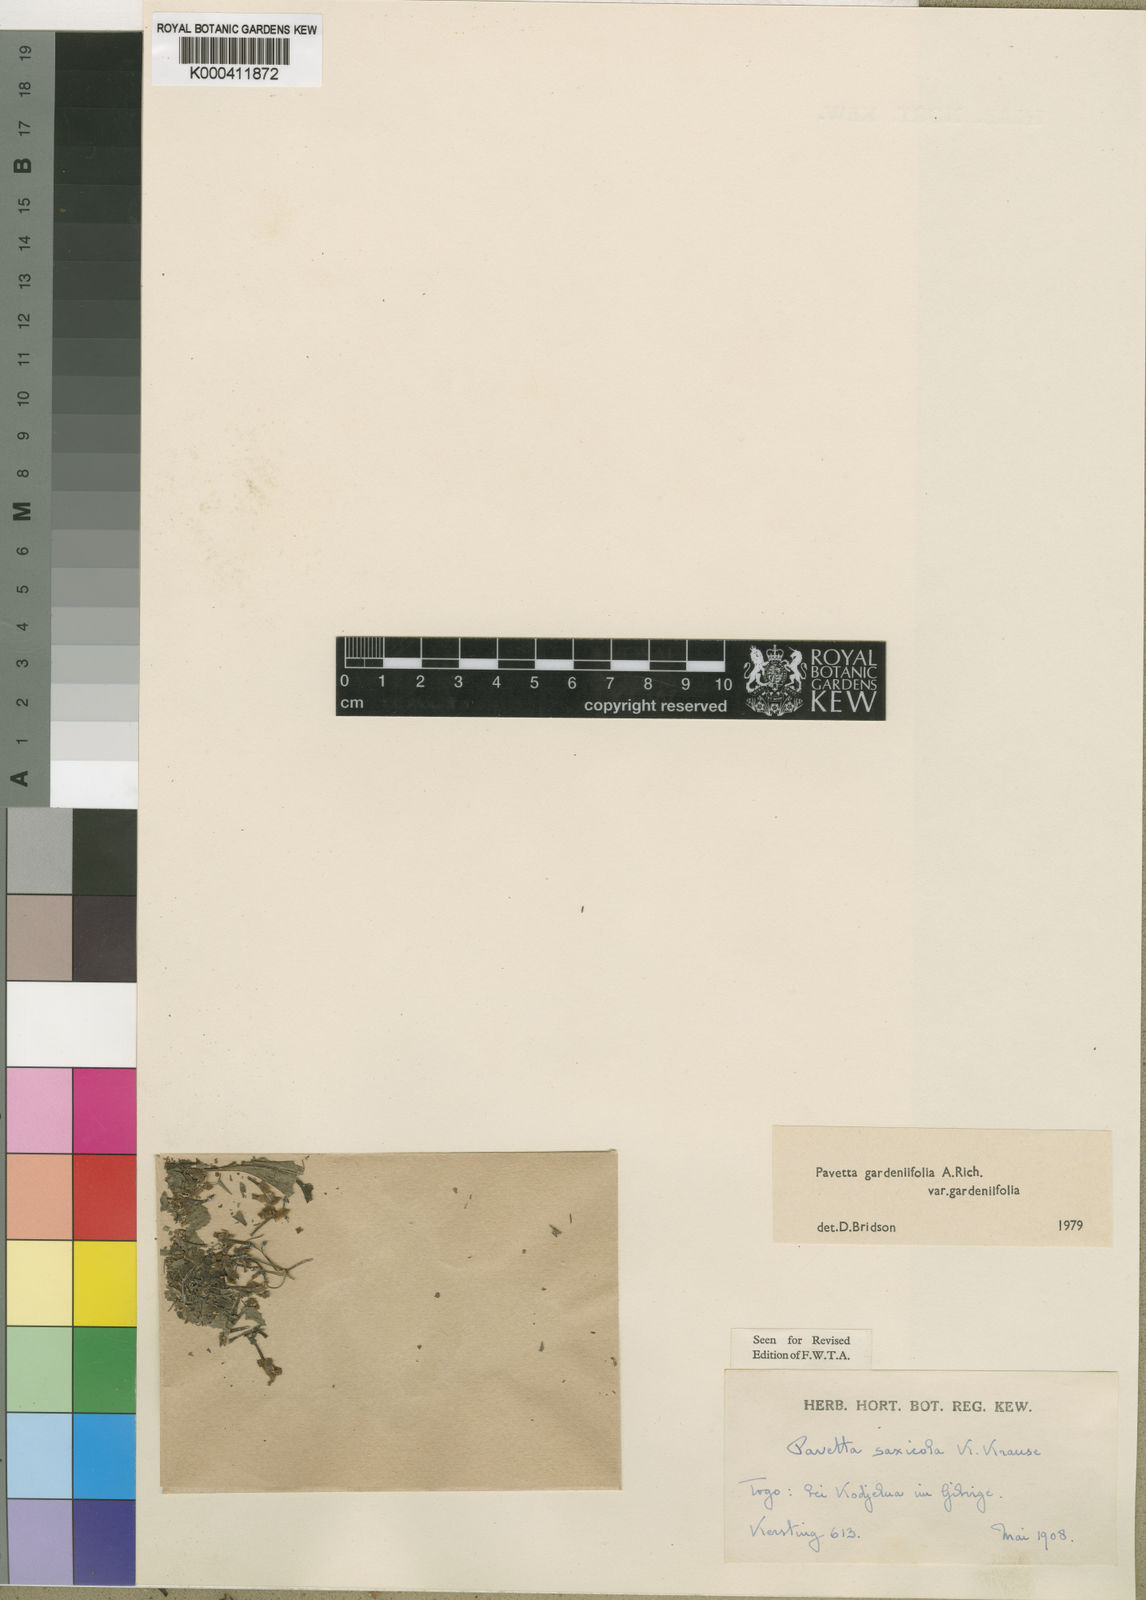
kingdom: Plantae
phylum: Tracheophyta
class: Magnoliopsida
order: Gentianales
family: Rubiaceae
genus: Pavetta
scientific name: Pavetta gardeniifolia
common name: Common brides-bush
